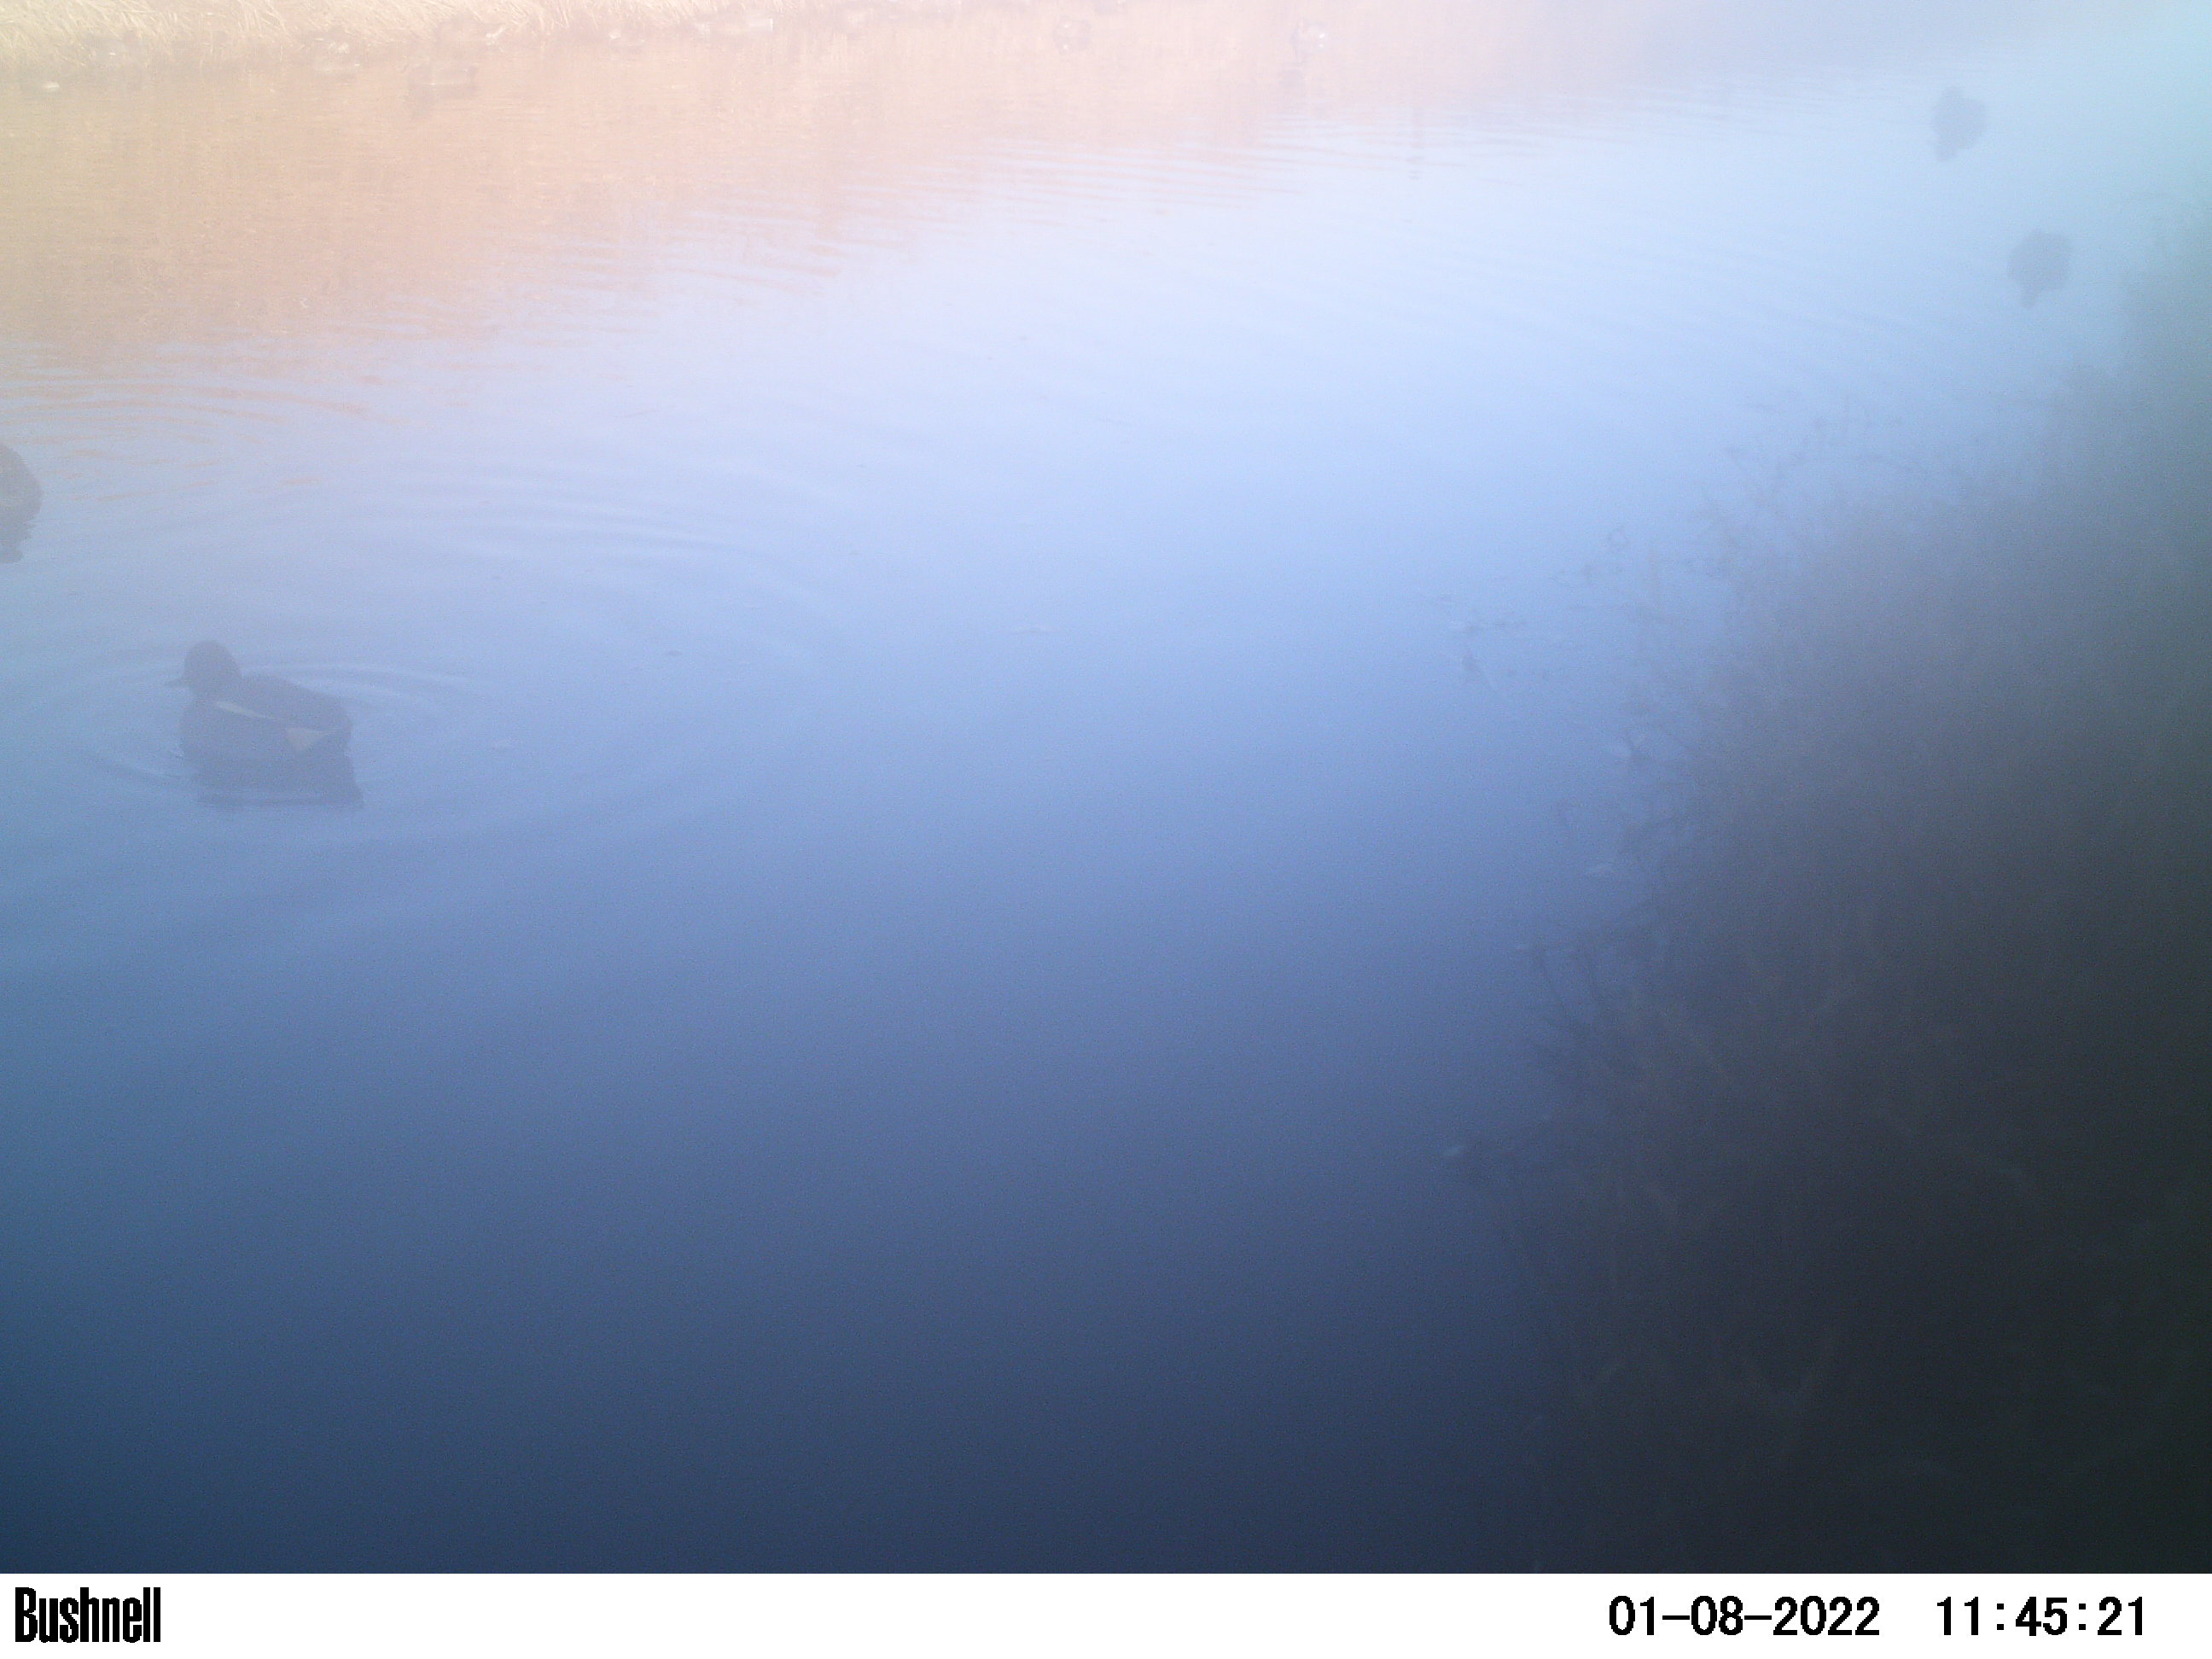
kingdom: Animalia
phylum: Chordata
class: Aves
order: Anseriformes
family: Anatidae
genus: Anas
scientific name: Anas
